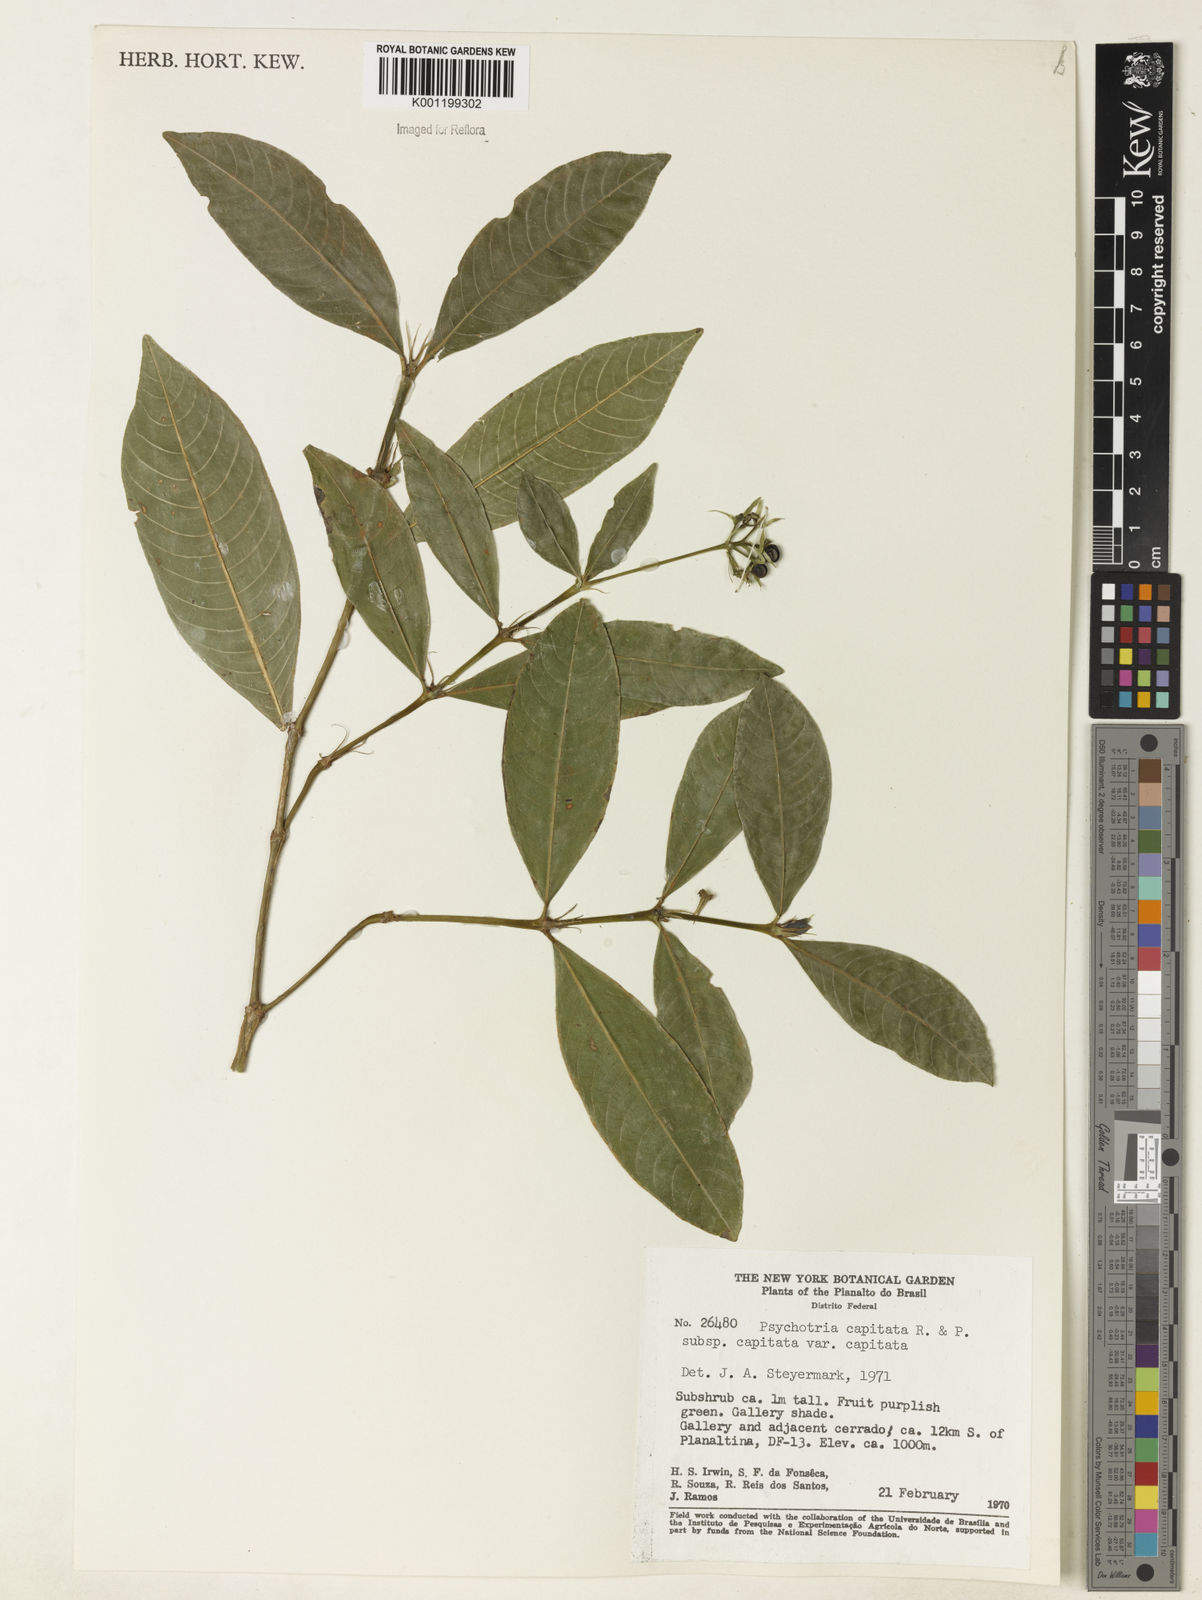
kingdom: Plantae
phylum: Tracheophyta
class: Magnoliopsida
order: Gentianales
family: Rubiaceae
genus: Palicourea
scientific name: Palicourea violacea
